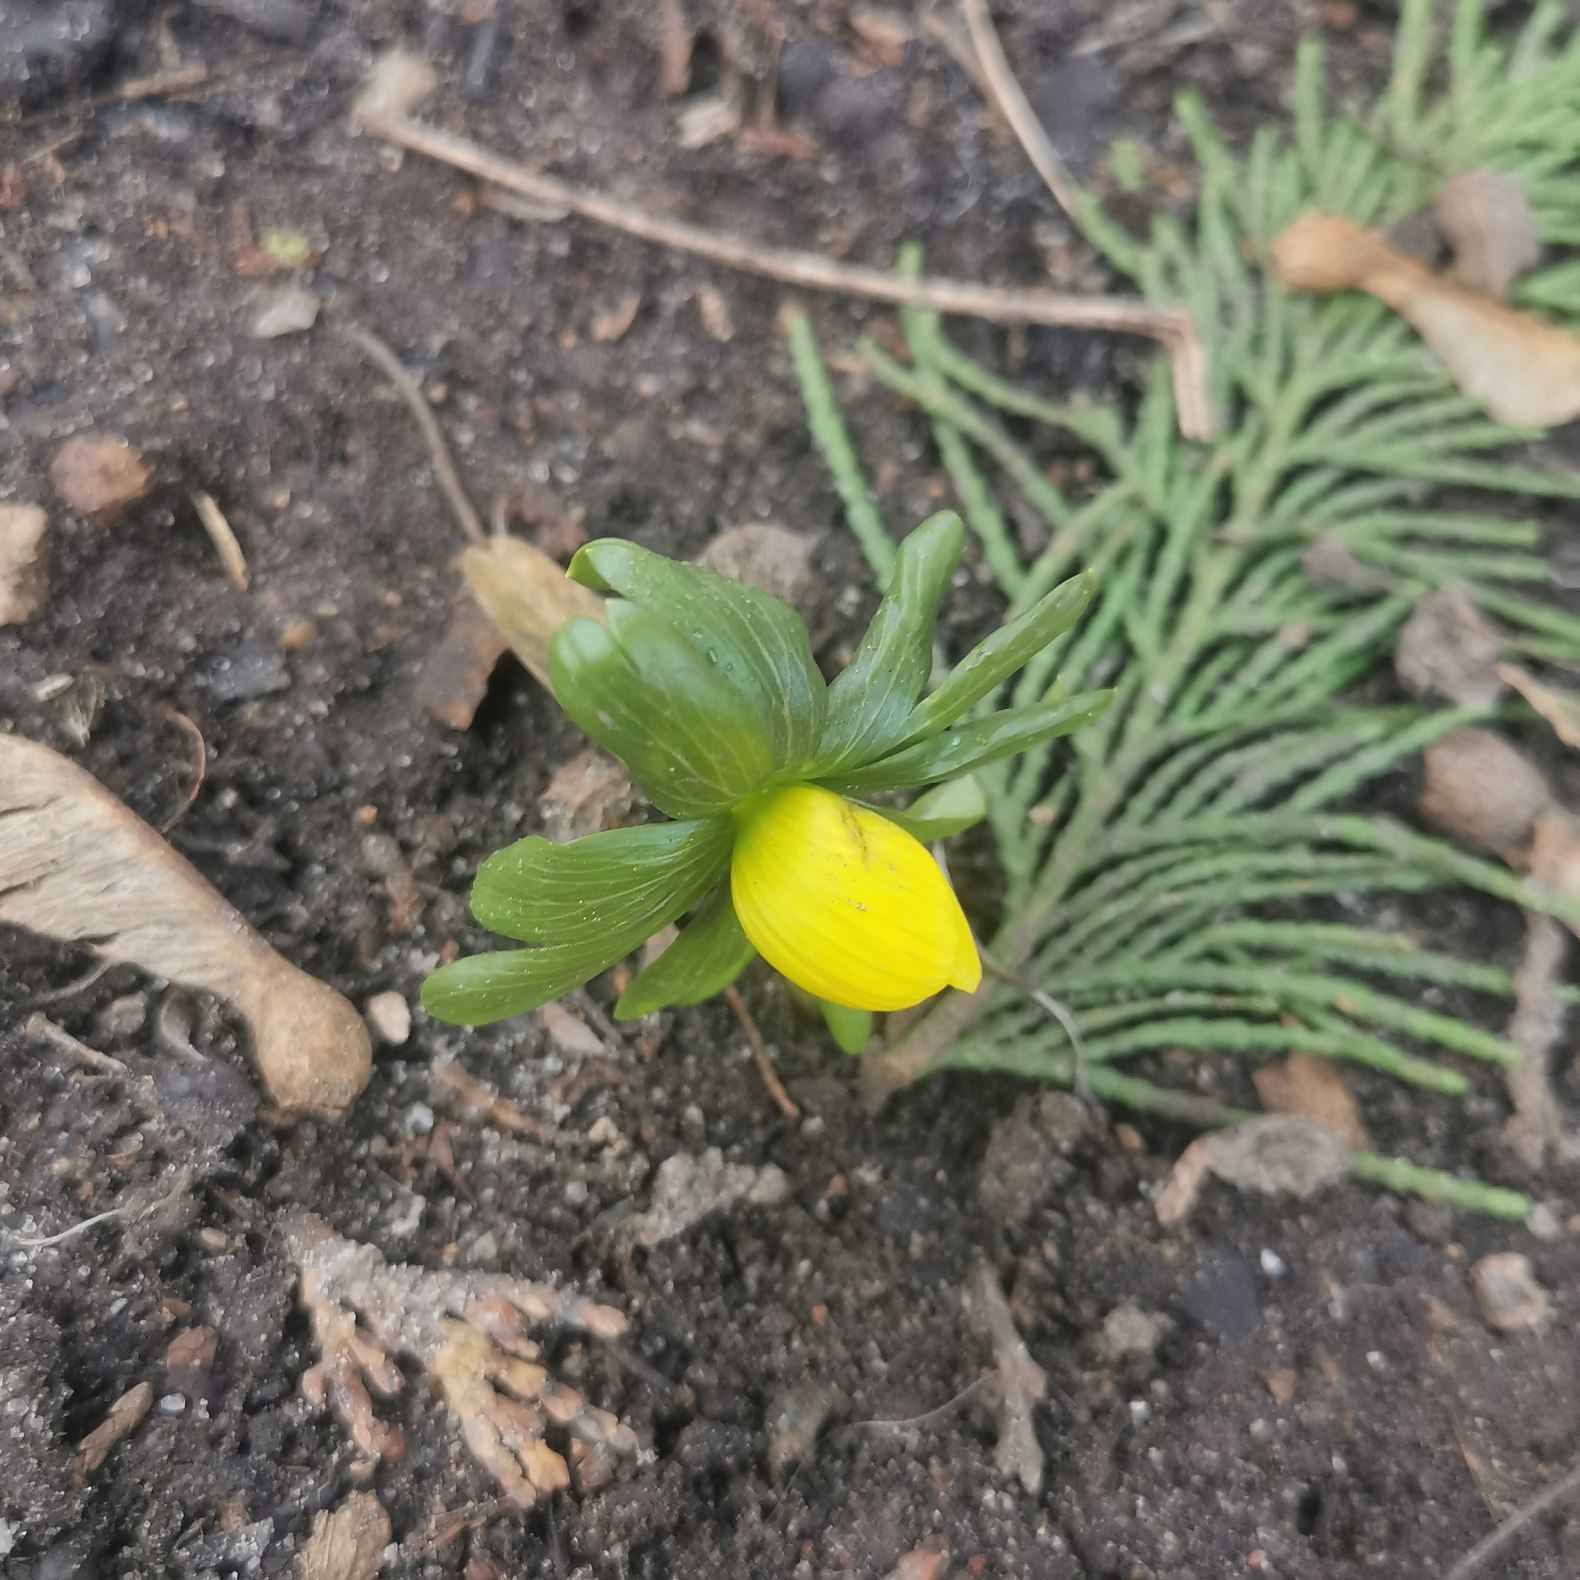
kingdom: Plantae
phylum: Tracheophyta
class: Magnoliopsida
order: Ranunculales
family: Ranunculaceae
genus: Eranthis
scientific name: Eranthis hyemalis
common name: Erantis
